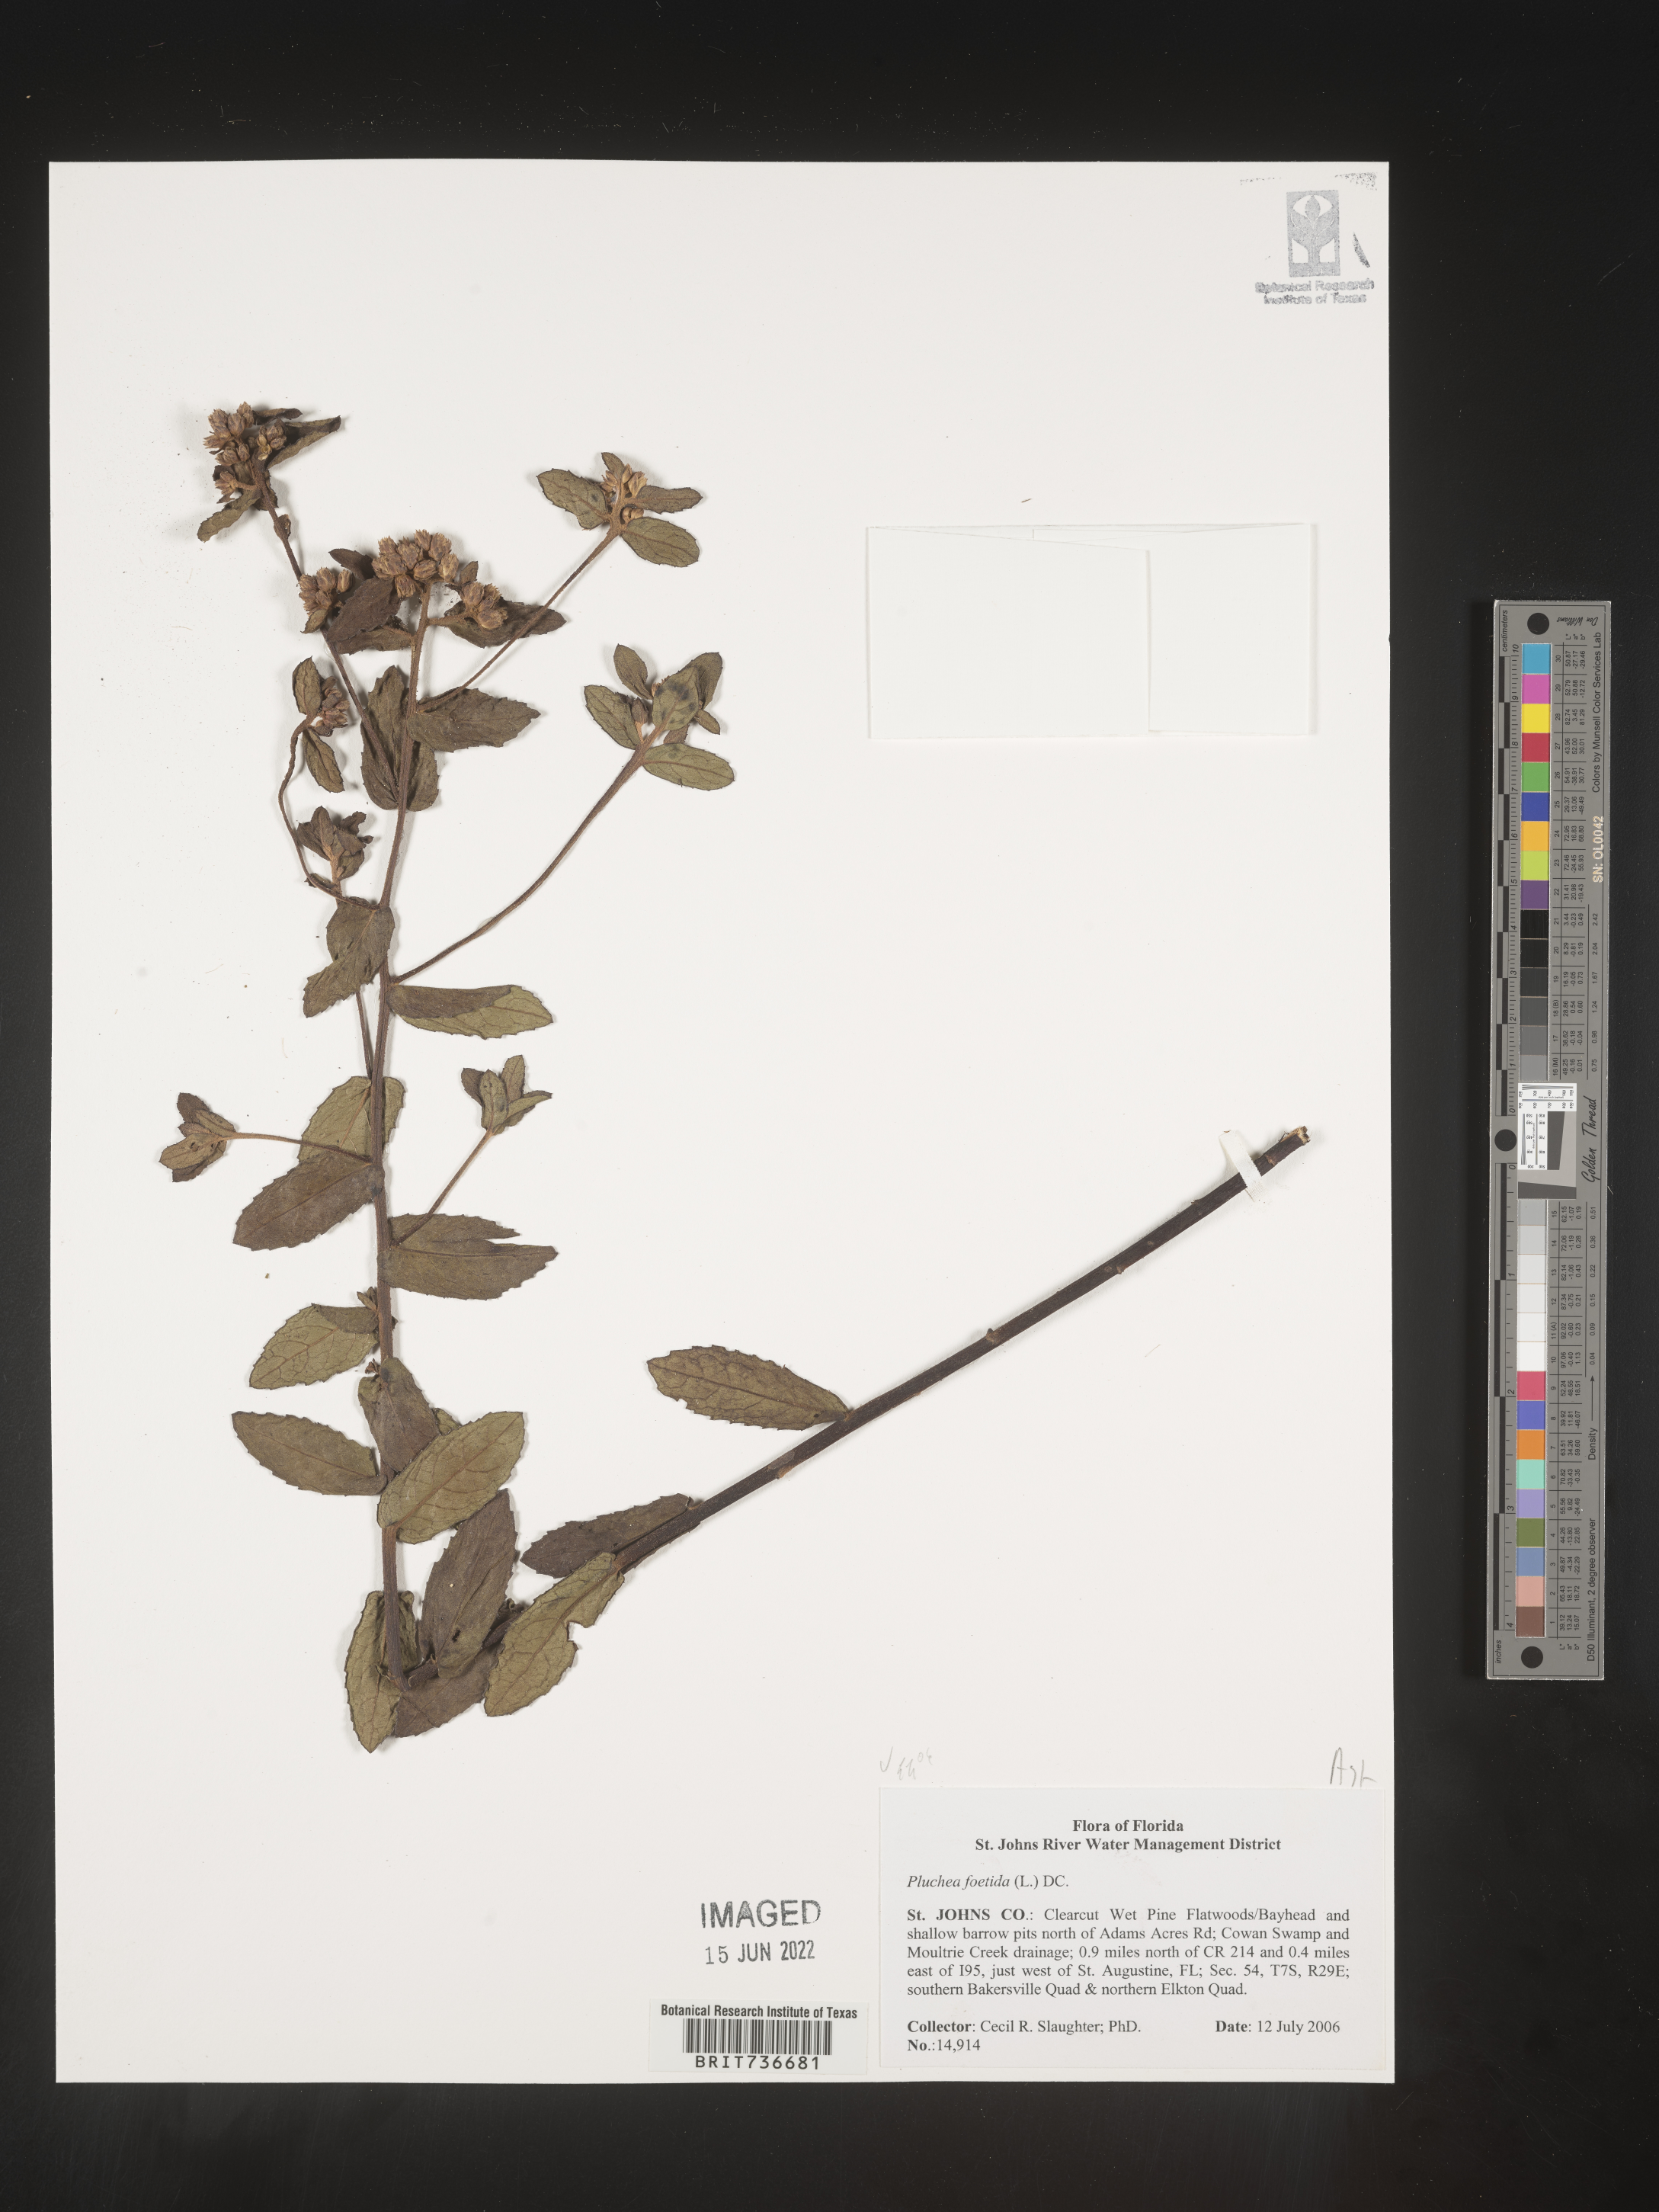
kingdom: Plantae
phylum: Tracheophyta
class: Magnoliopsida
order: Asterales
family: Asteraceae
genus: Pluchea
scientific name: Pluchea foetida
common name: Stinking camphorweed
